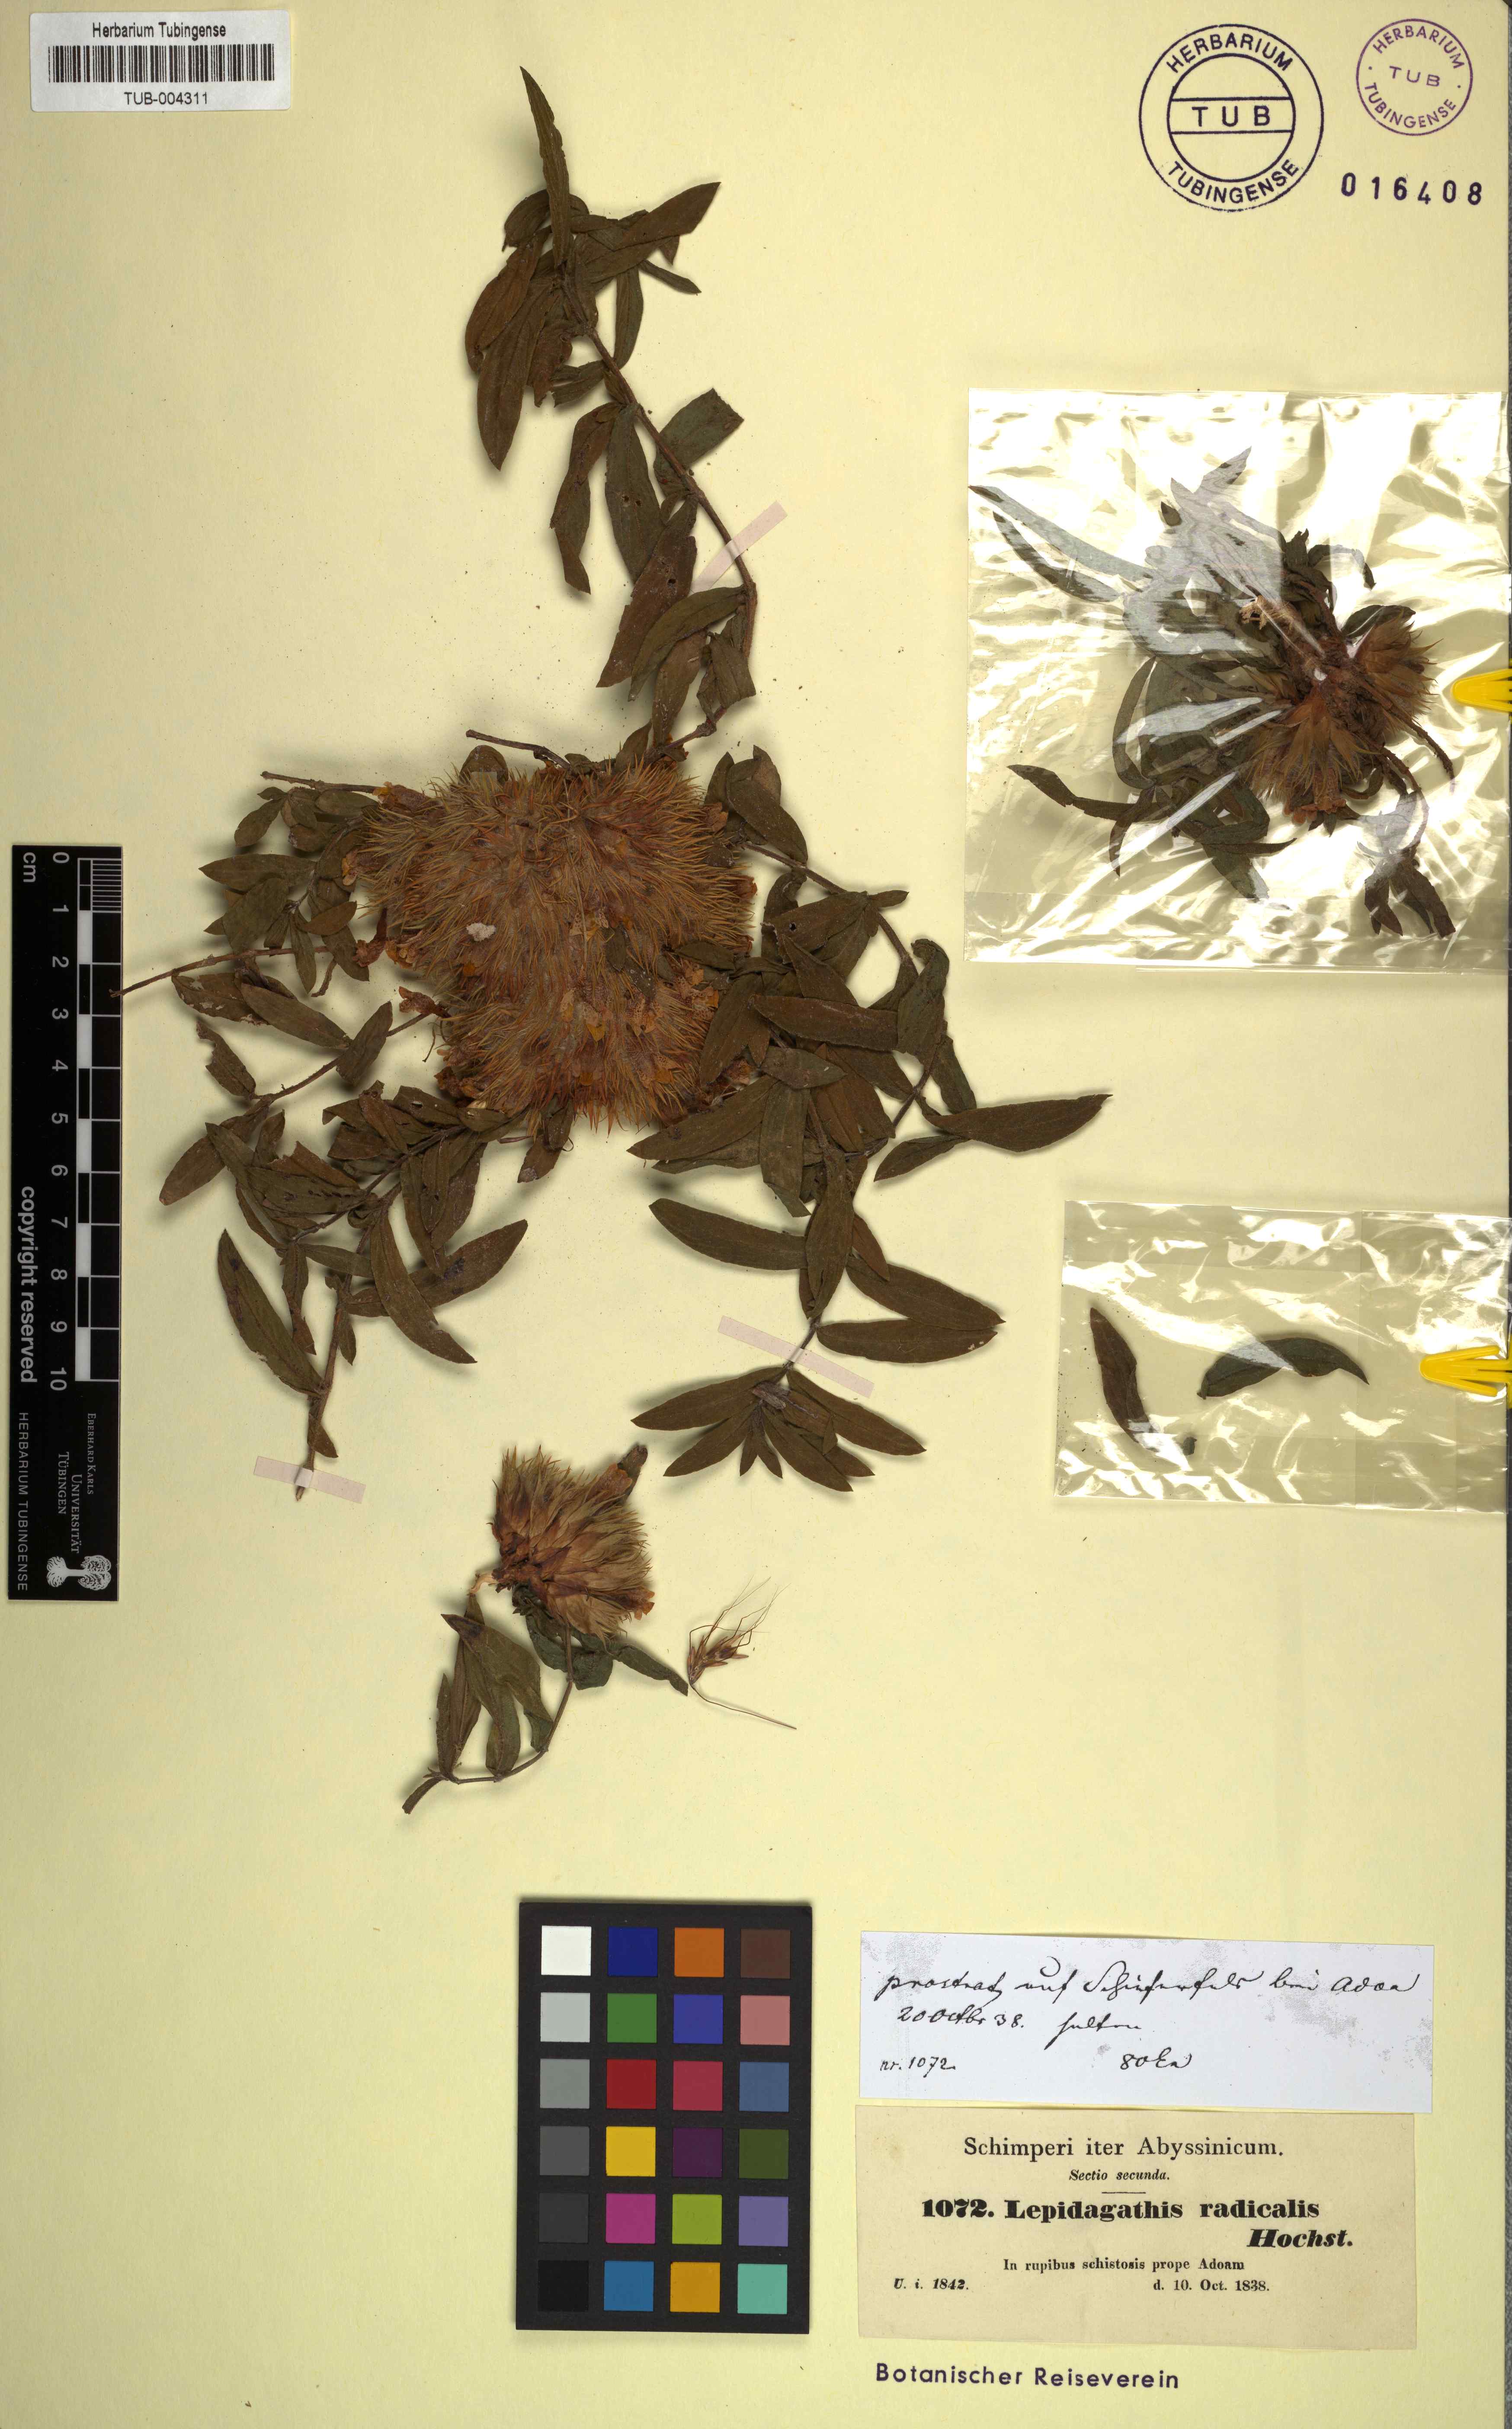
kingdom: Plantae
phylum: Tracheophyta
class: Magnoliopsida
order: Lamiales
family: Acanthaceae
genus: Lepidagathis
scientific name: Lepidagathis collina
